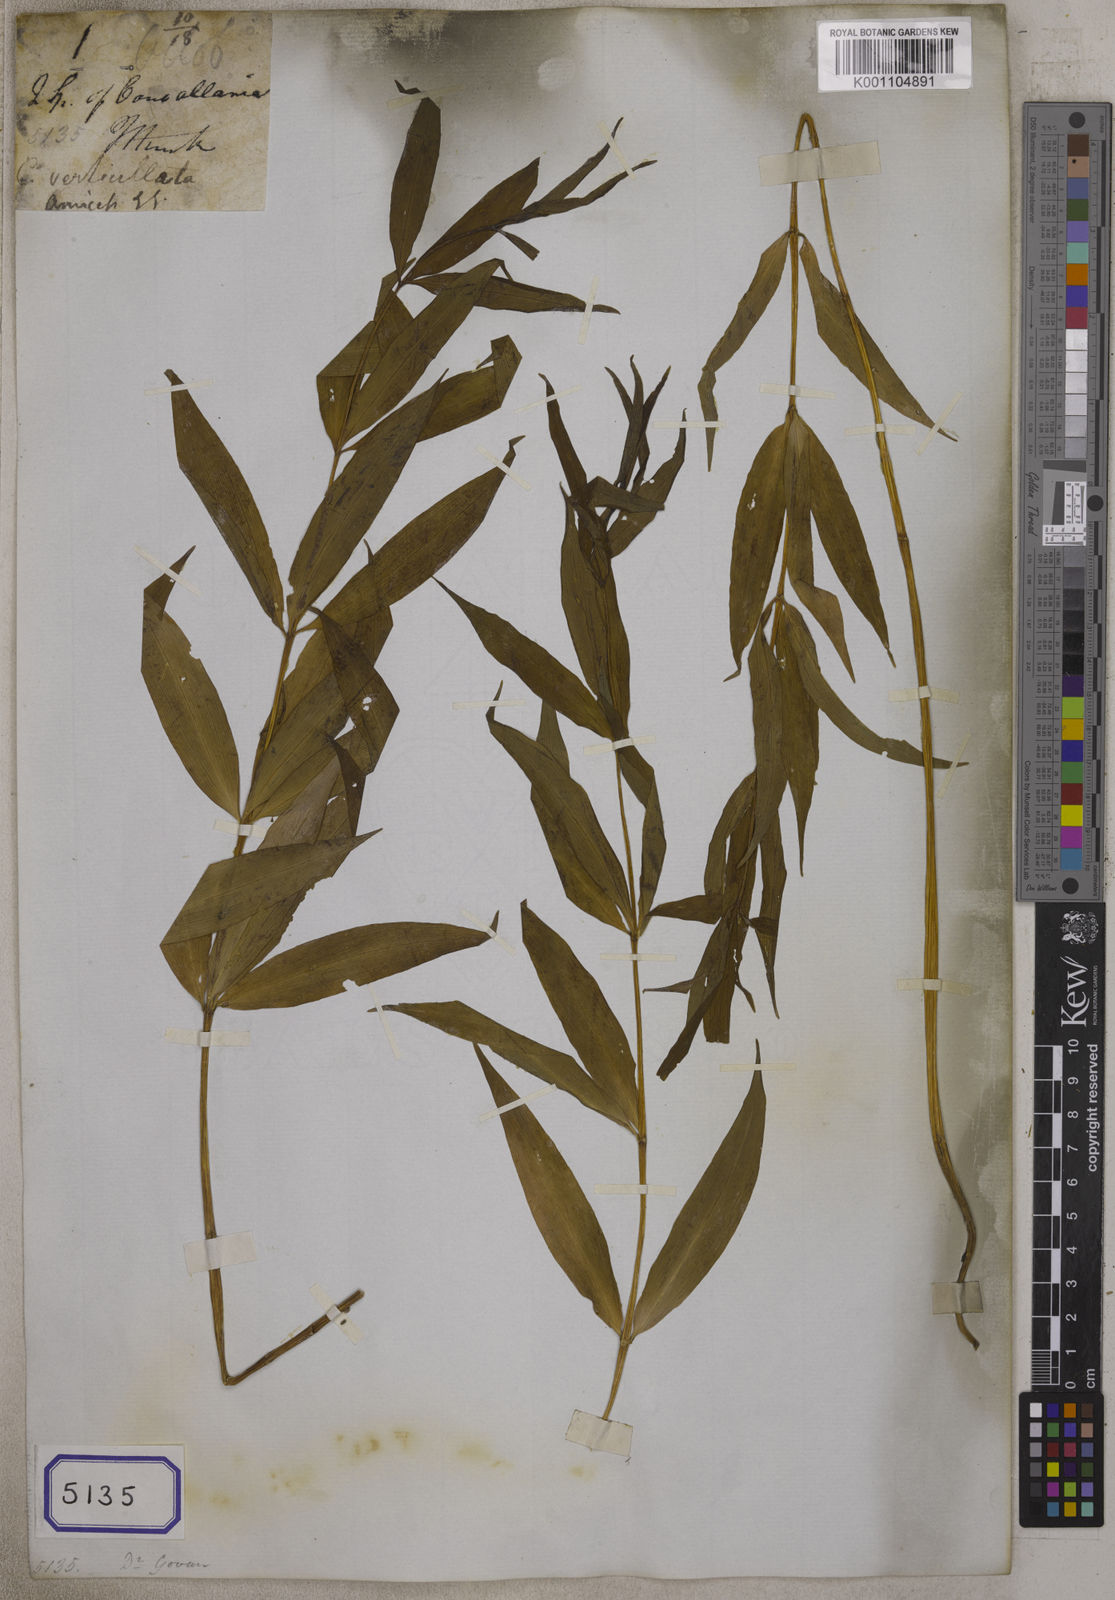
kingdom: Plantae
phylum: Tracheophyta
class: Liliopsida
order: Asparagales
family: Asparagaceae
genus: Polygonatum
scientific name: Polygonatum verticillatum
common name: Whorled solomon's-seal
